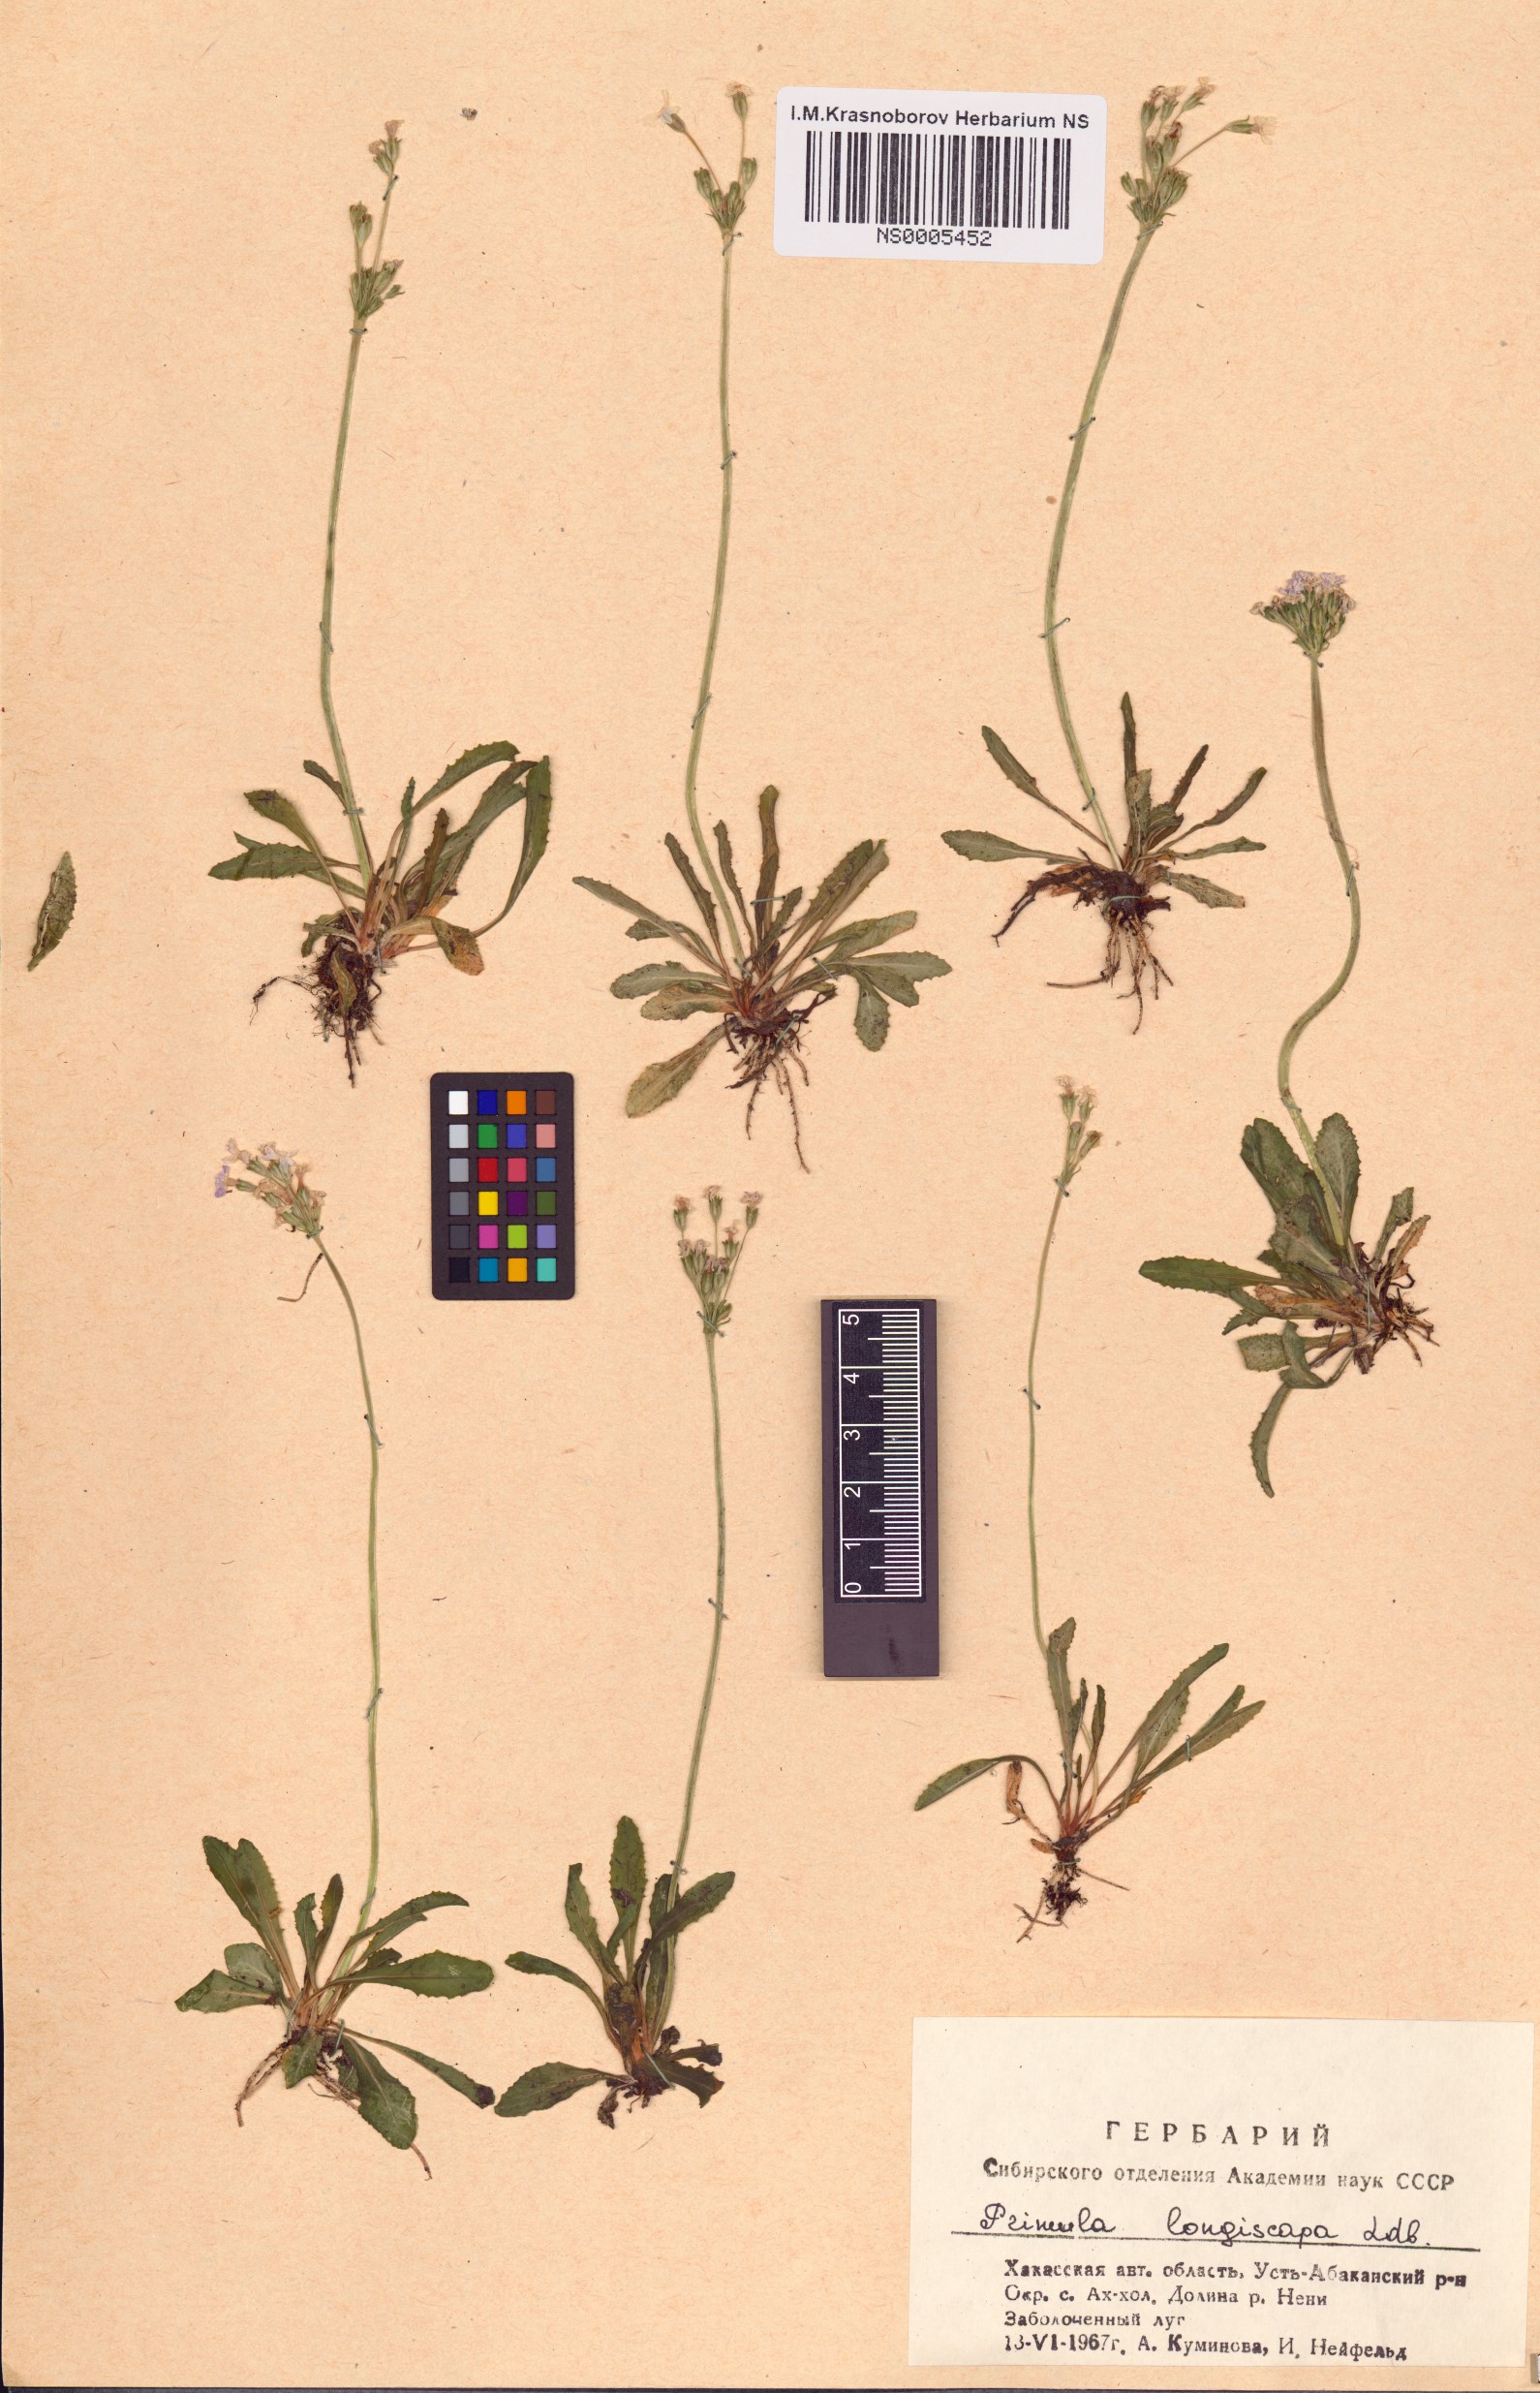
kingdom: Plantae
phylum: Tracheophyta
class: Magnoliopsida
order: Ericales
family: Primulaceae
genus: Primula
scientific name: Primula longiscapa
